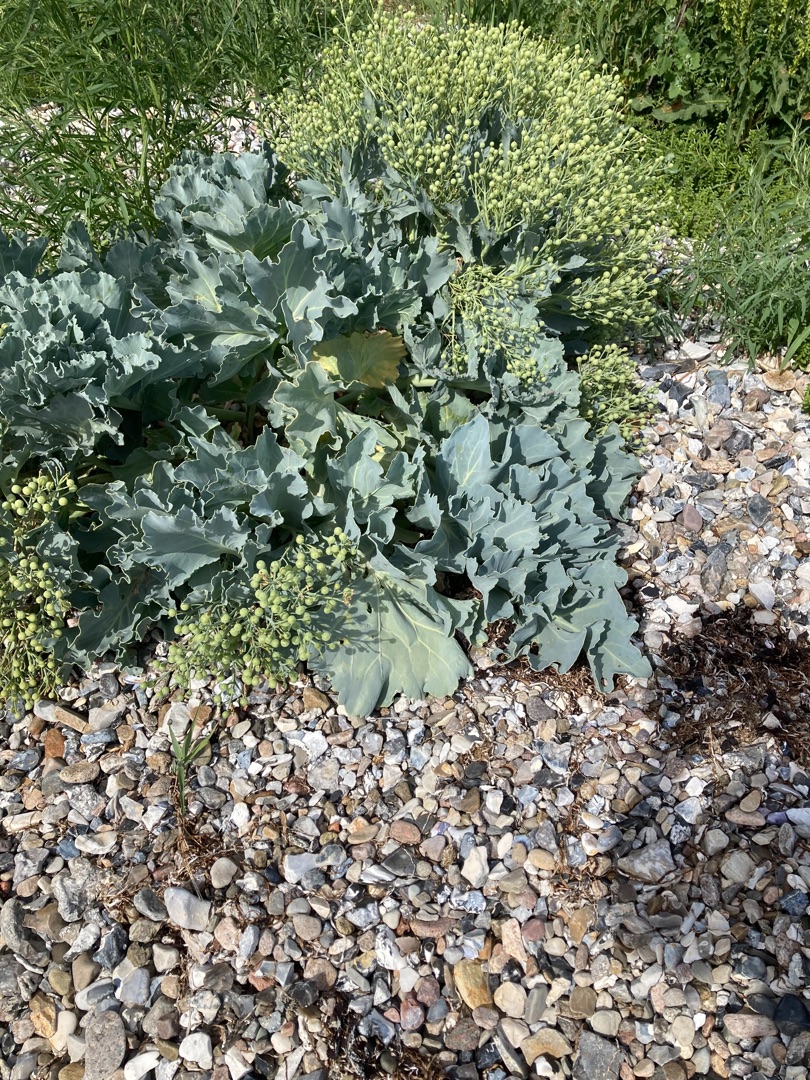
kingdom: Plantae
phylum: Tracheophyta
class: Magnoliopsida
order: Brassicales
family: Brassicaceae
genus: Crambe
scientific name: Crambe maritima
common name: Strandkål
